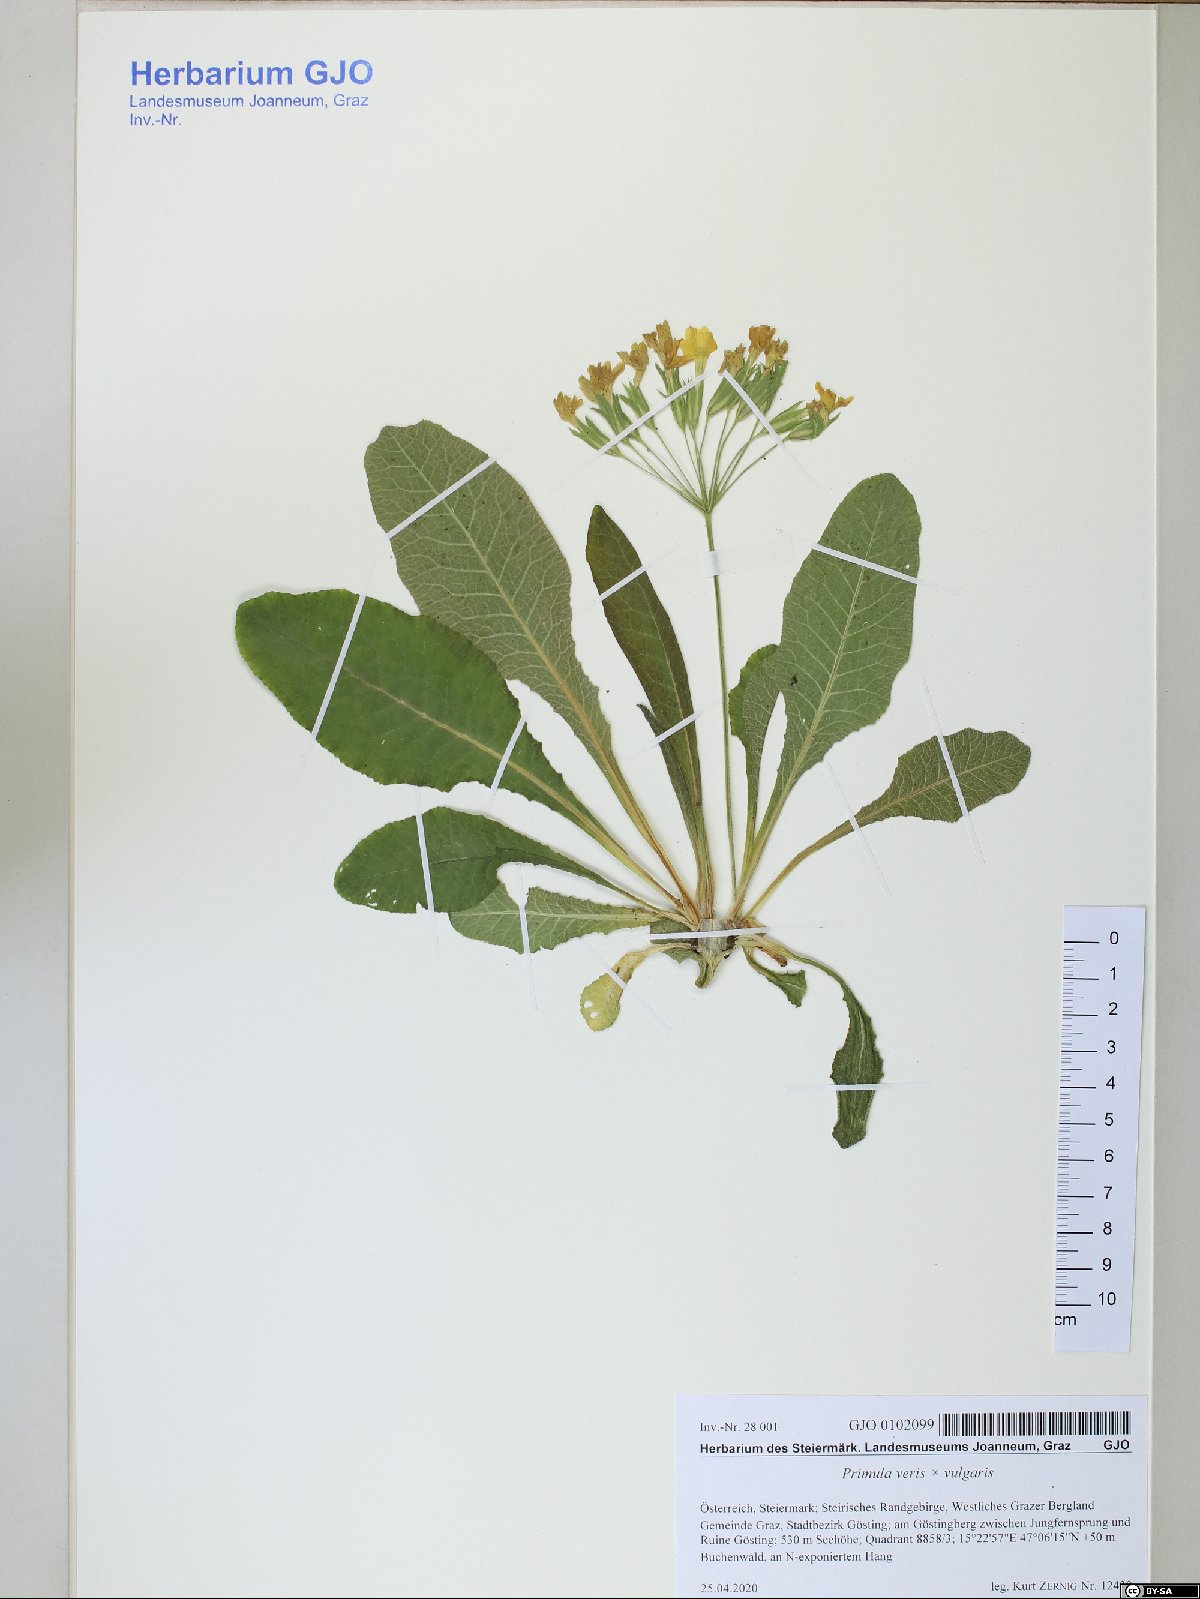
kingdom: Plantae
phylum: Tracheophyta
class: Magnoliopsida
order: Ericales
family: Primulaceae
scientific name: Primulaceae
